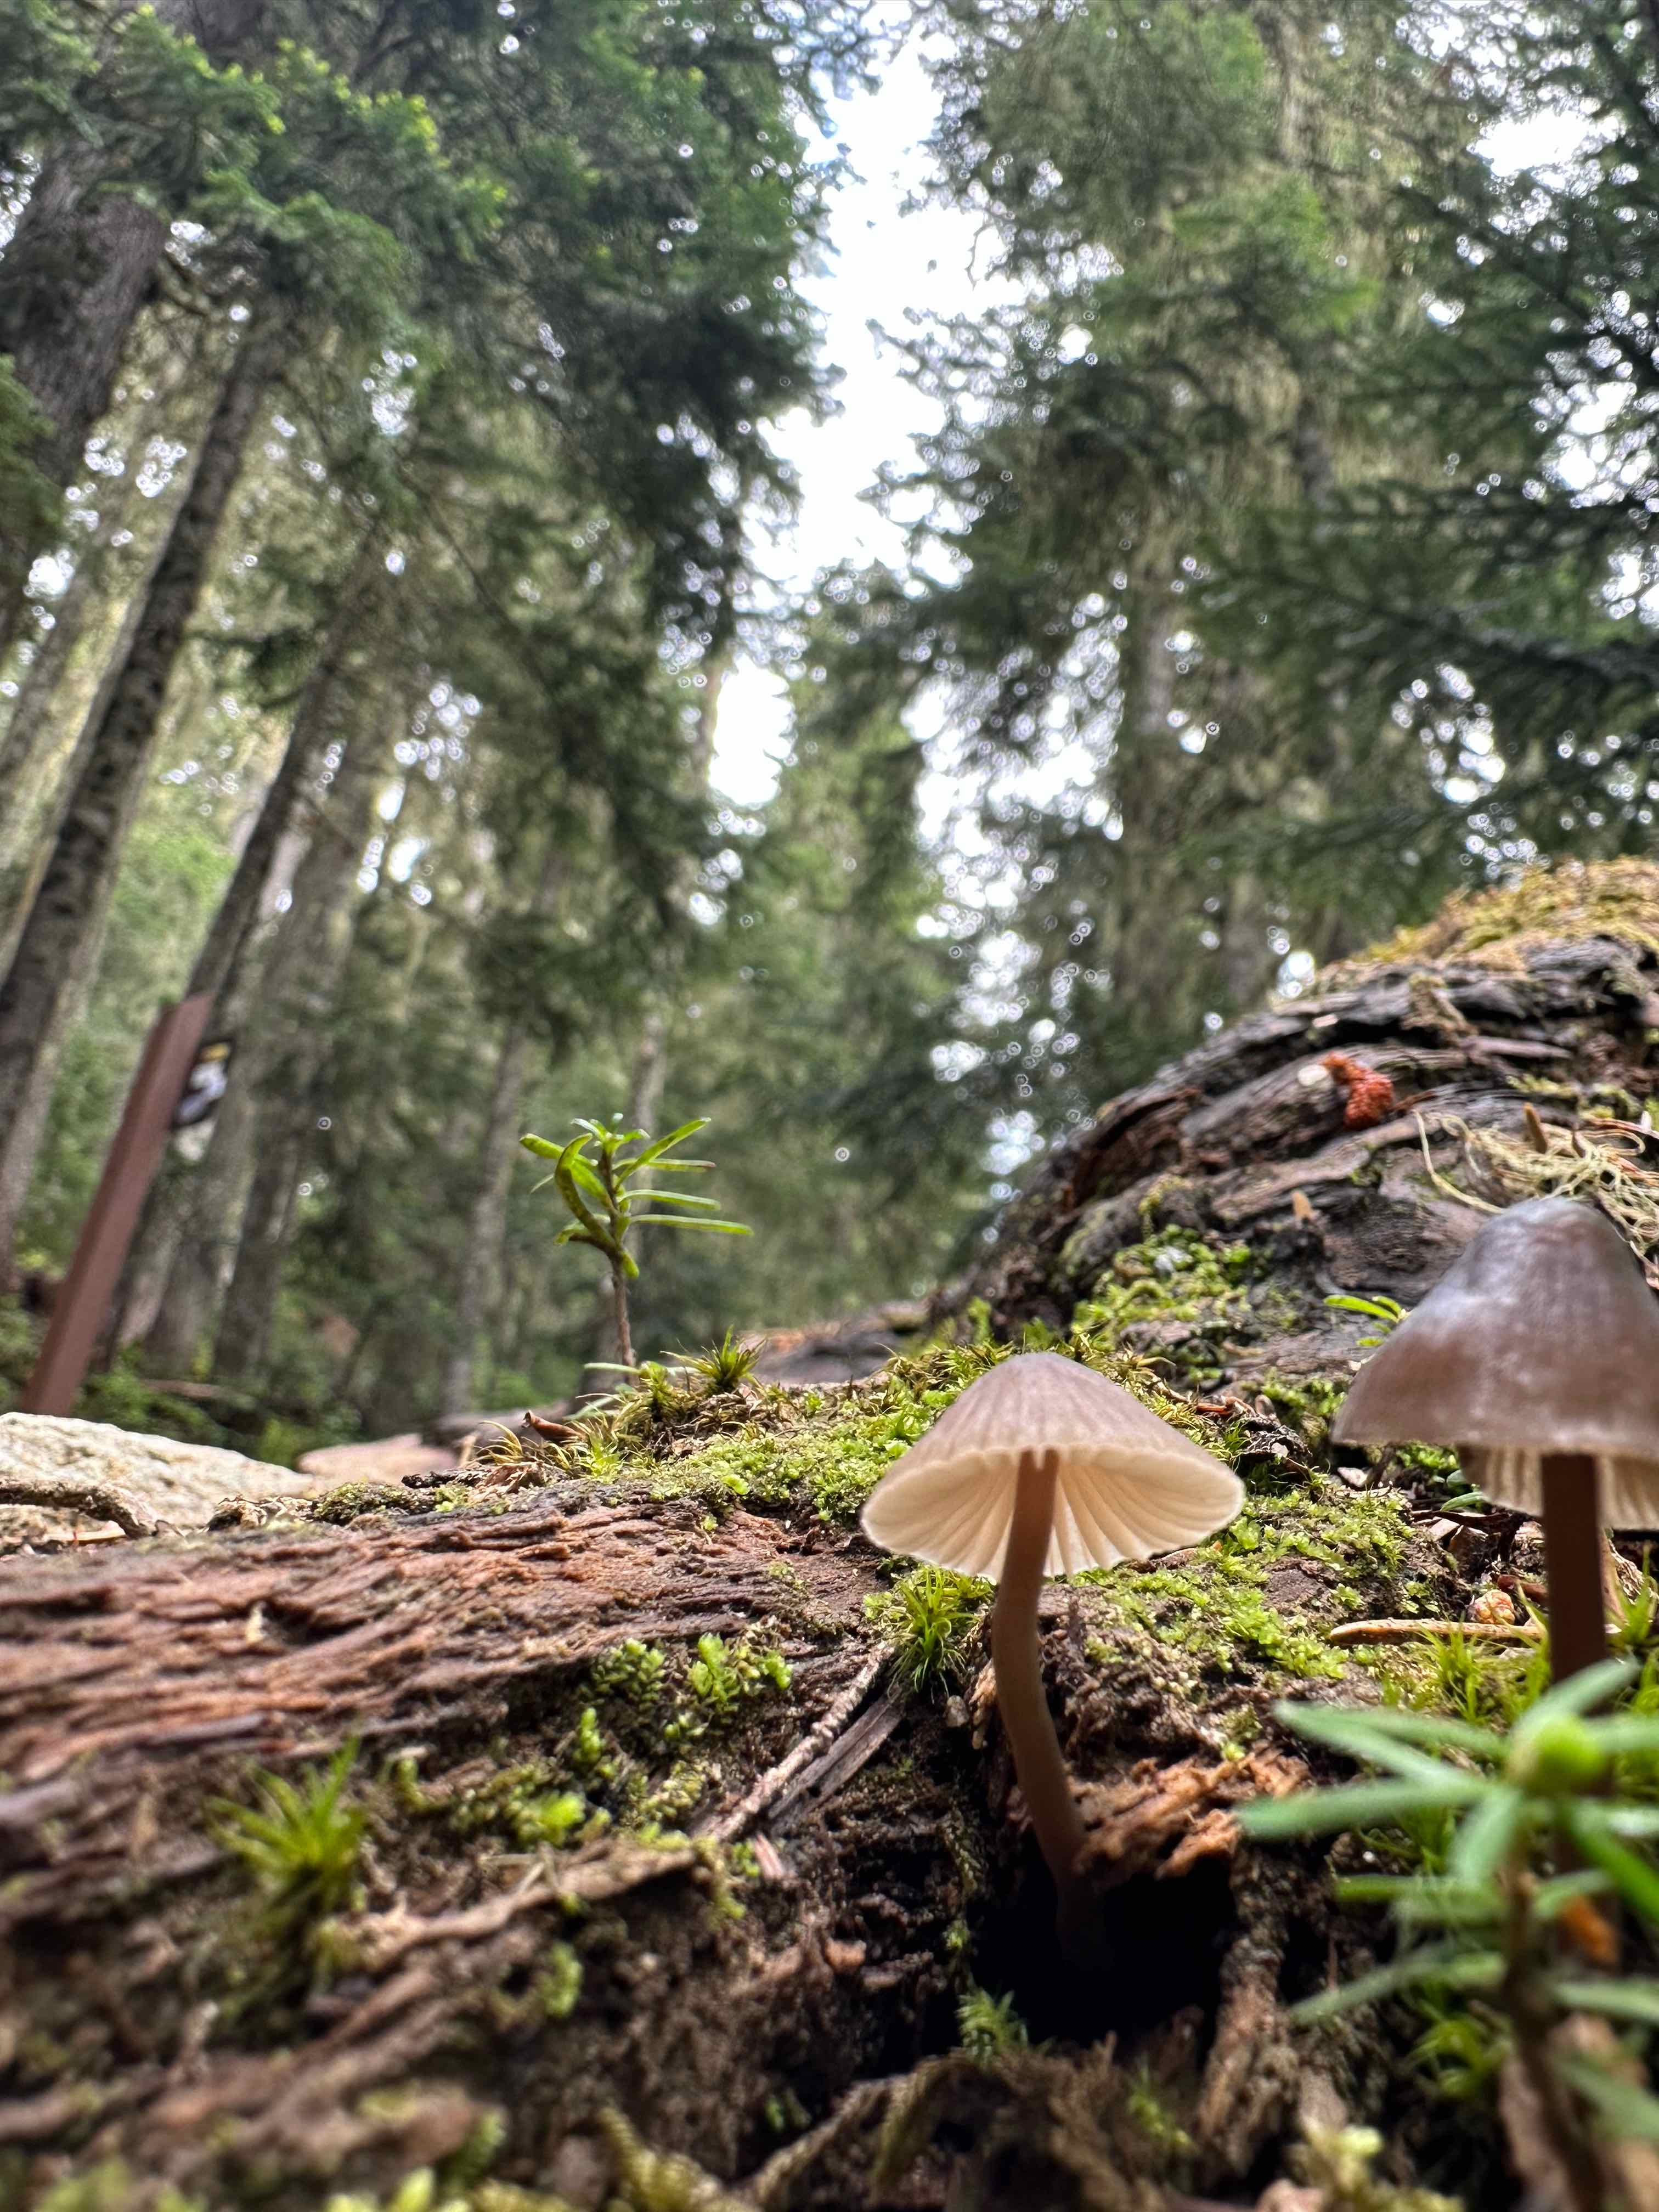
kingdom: Fungi
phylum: Basidiomycota
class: Agaricomycetes
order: Agaricales
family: Mycenaceae
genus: Mycena
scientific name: Mycena
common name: huesvamp
